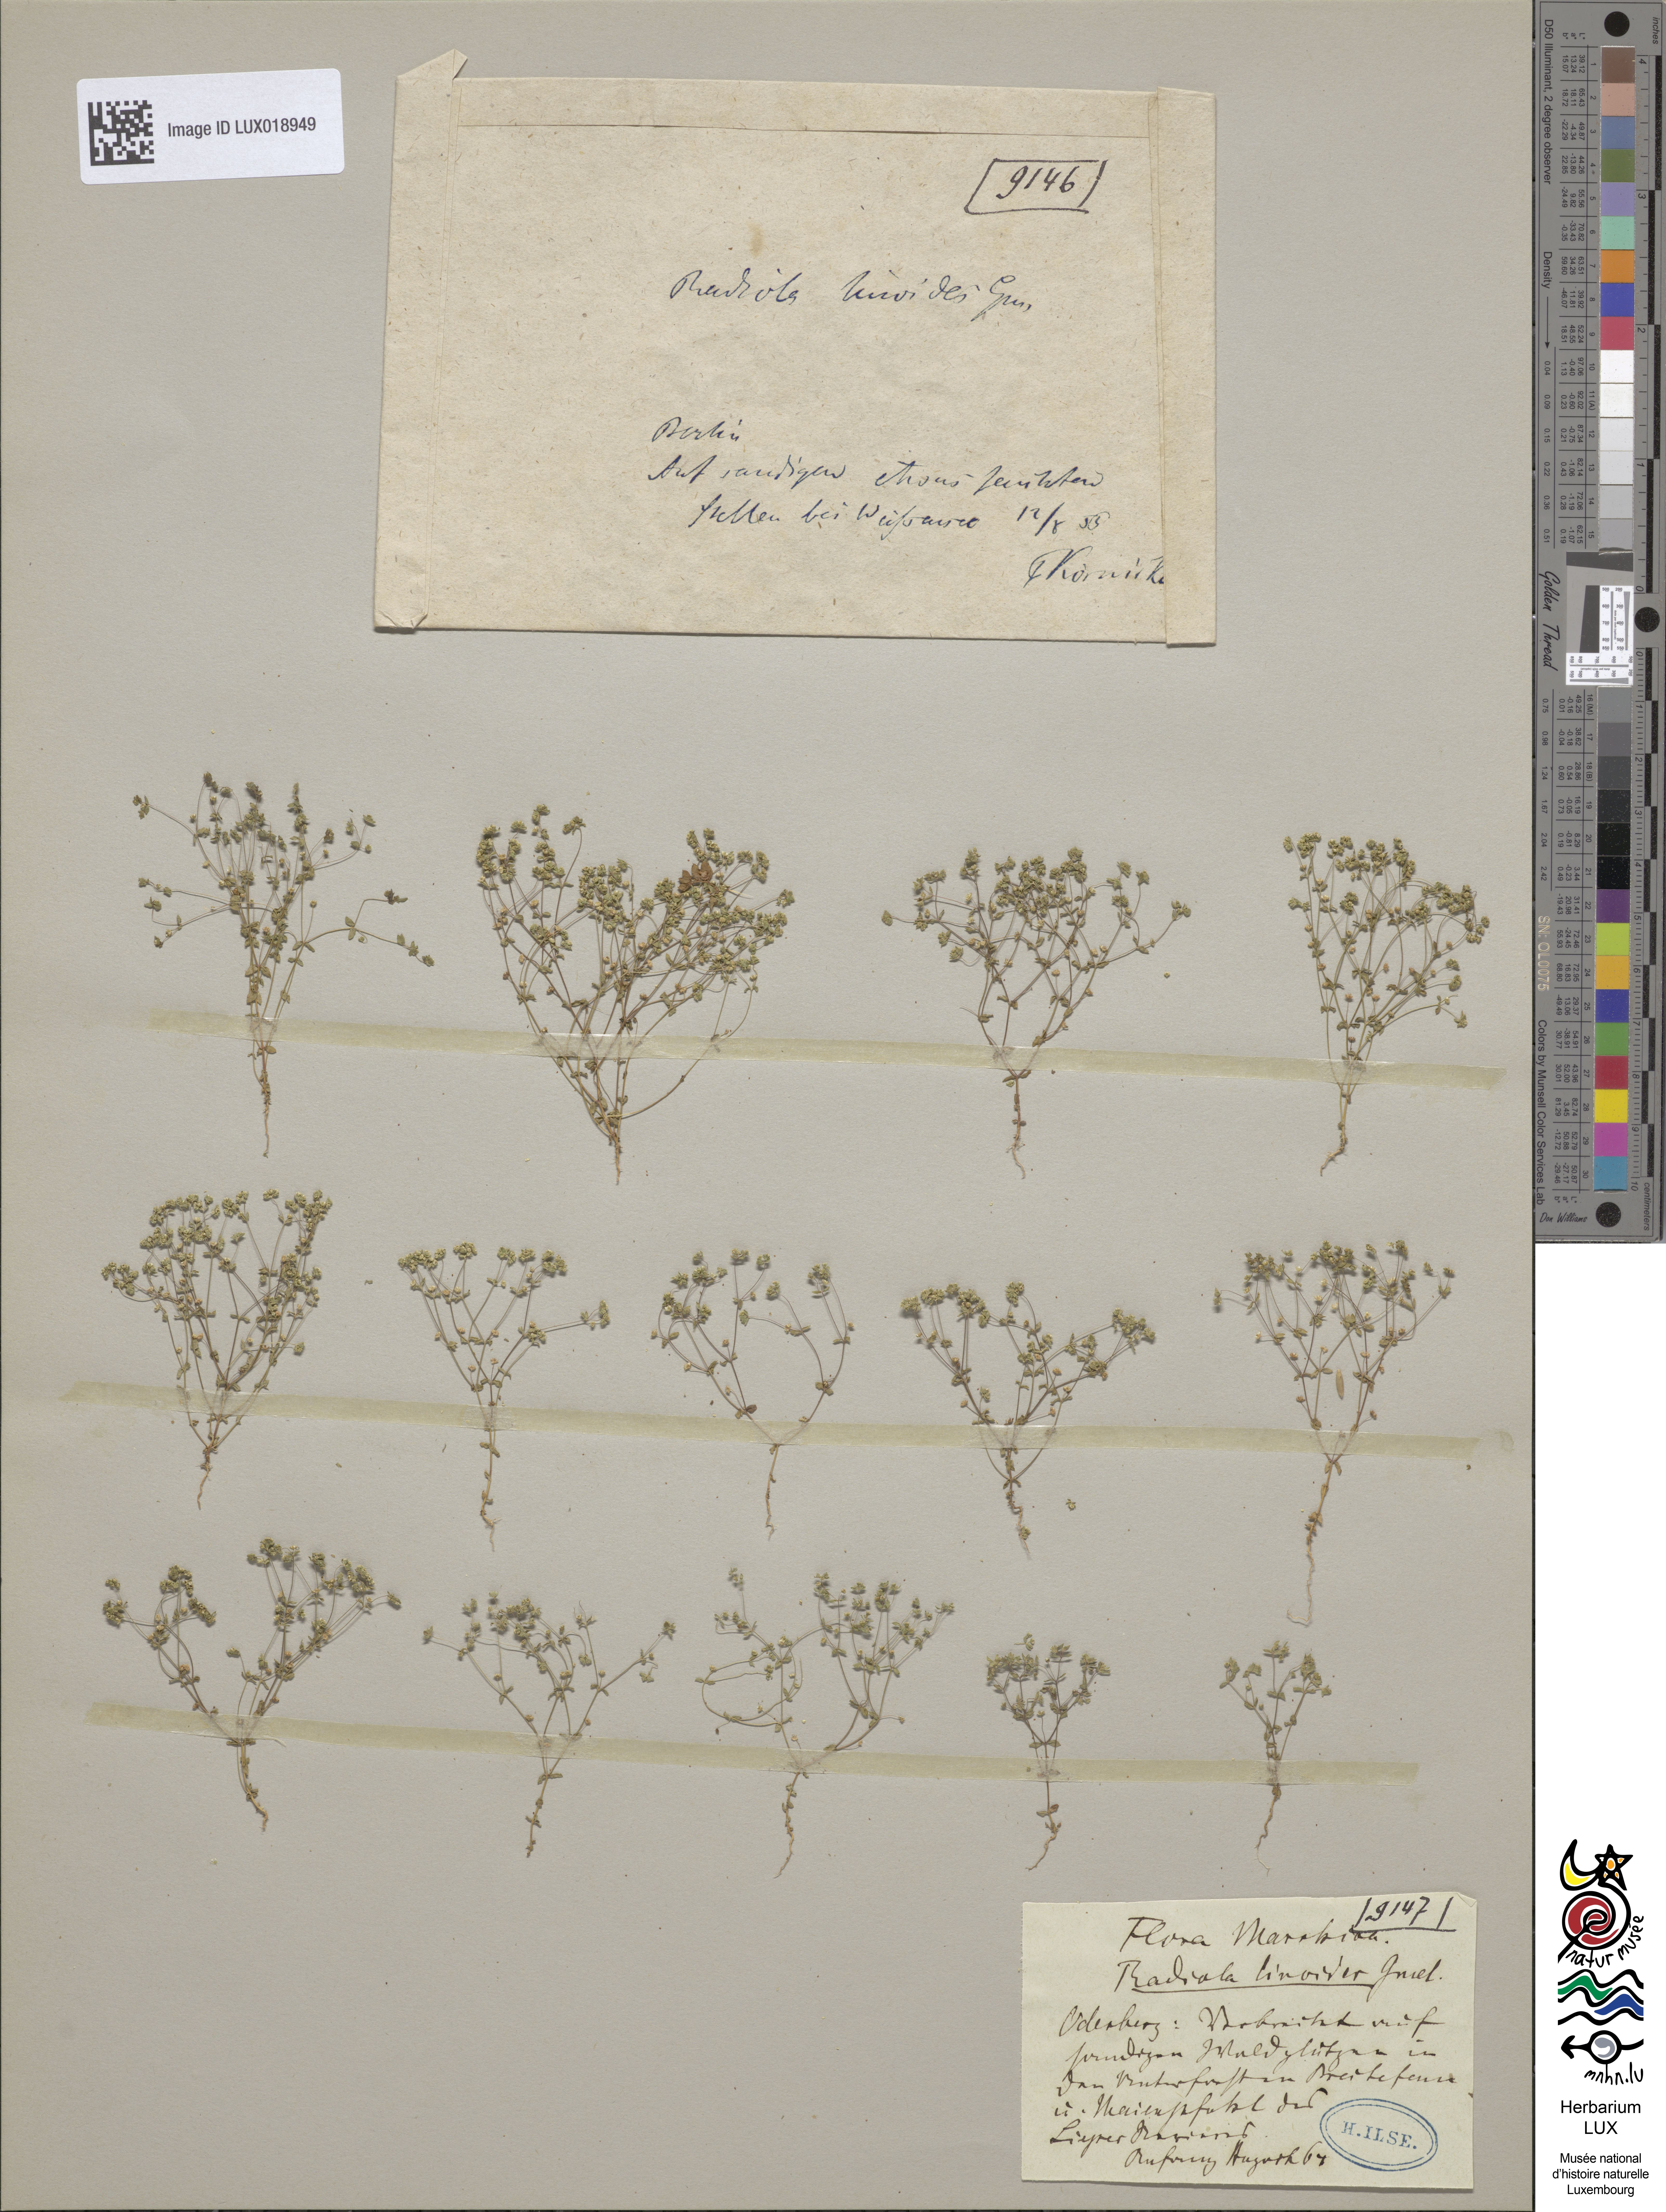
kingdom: Plantae
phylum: Tracheophyta
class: Magnoliopsida
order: Malpighiales
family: Linaceae
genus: Radiola
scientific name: Radiola linoides
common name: Allseed
